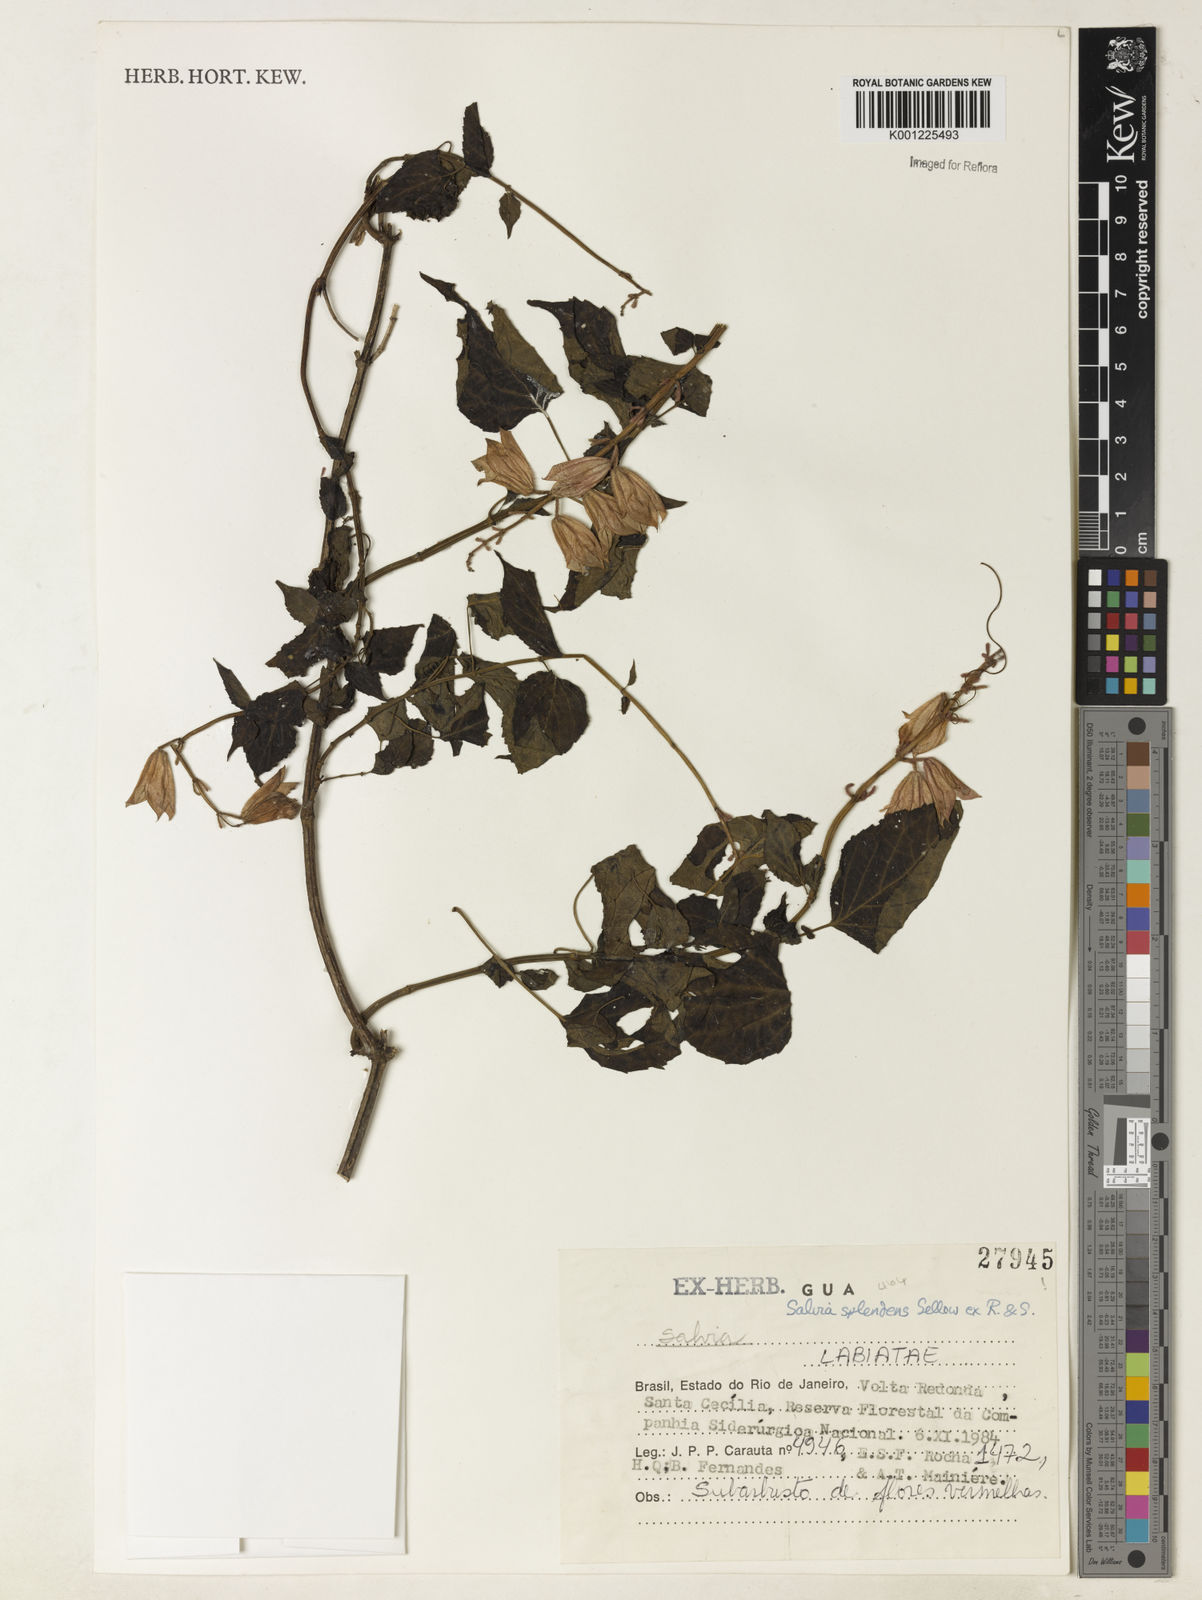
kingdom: Plantae
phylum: Tracheophyta
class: Magnoliopsida
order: Lamiales
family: Lamiaceae
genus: Salvia
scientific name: Salvia
